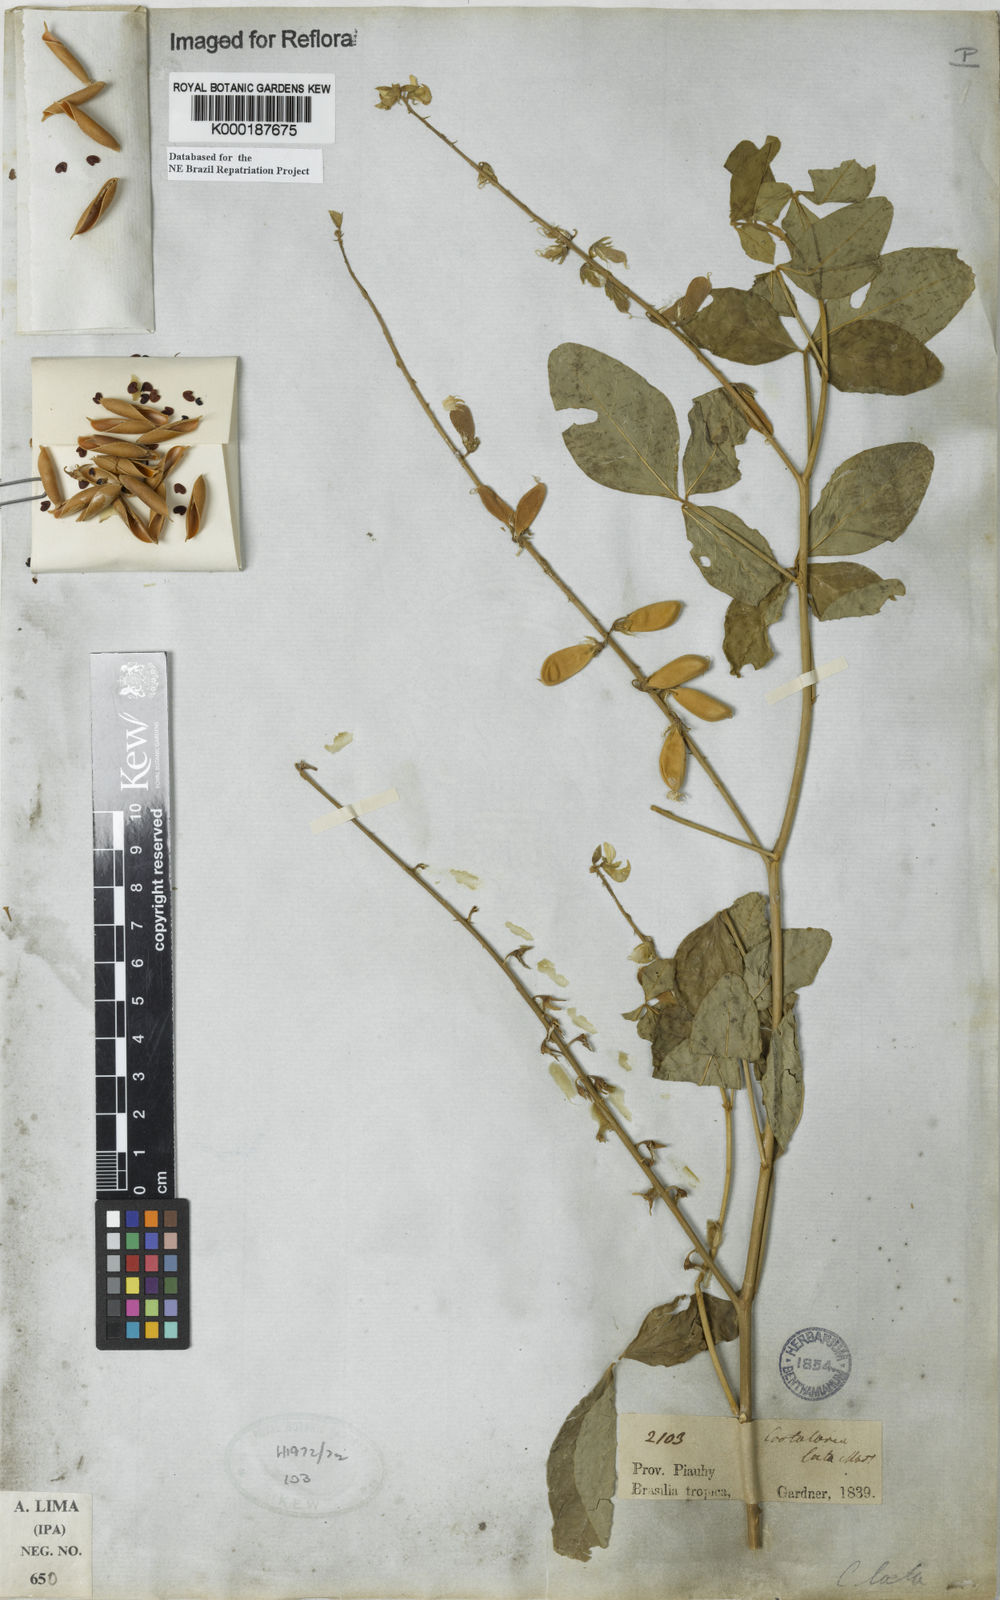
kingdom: Plantae
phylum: Tracheophyta
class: Magnoliopsida
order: Fabales
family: Fabaceae
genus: Crotalaria
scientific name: Crotalaria laeta
